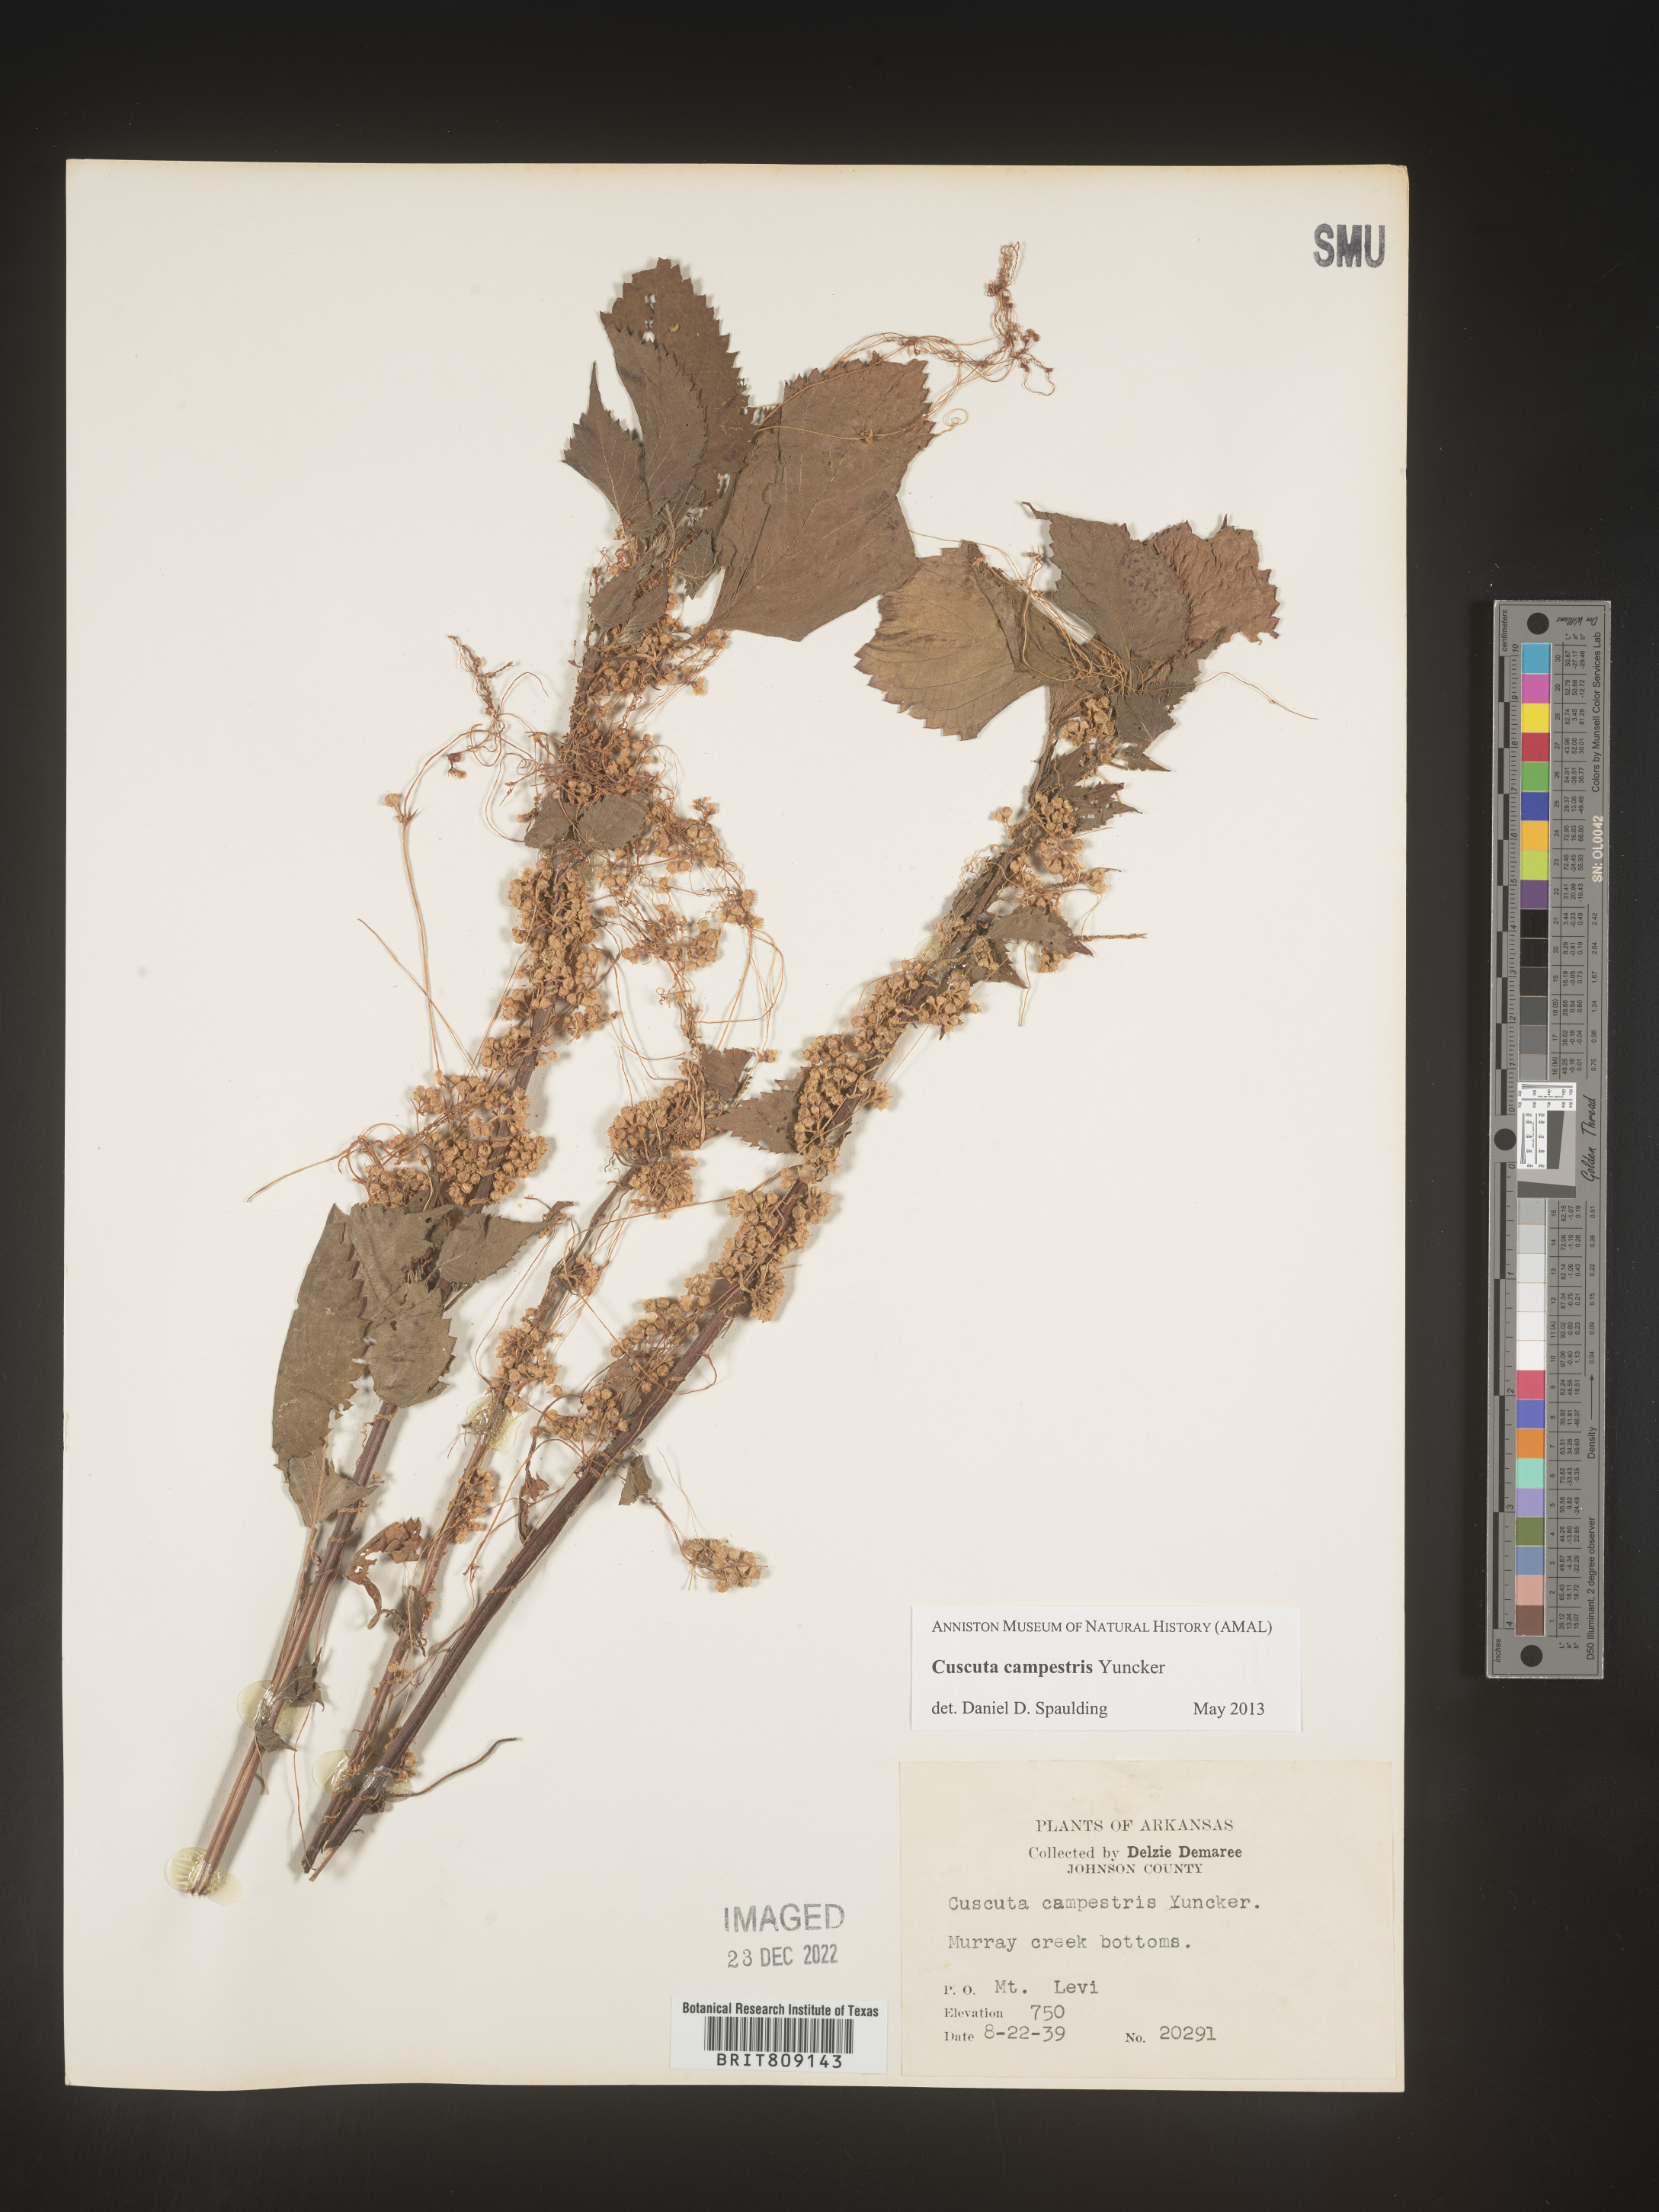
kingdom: Plantae
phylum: Tracheophyta
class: Magnoliopsida
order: Solanales
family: Convolvulaceae
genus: Cuscuta
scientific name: Cuscuta campestris
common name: Yellow dodder
